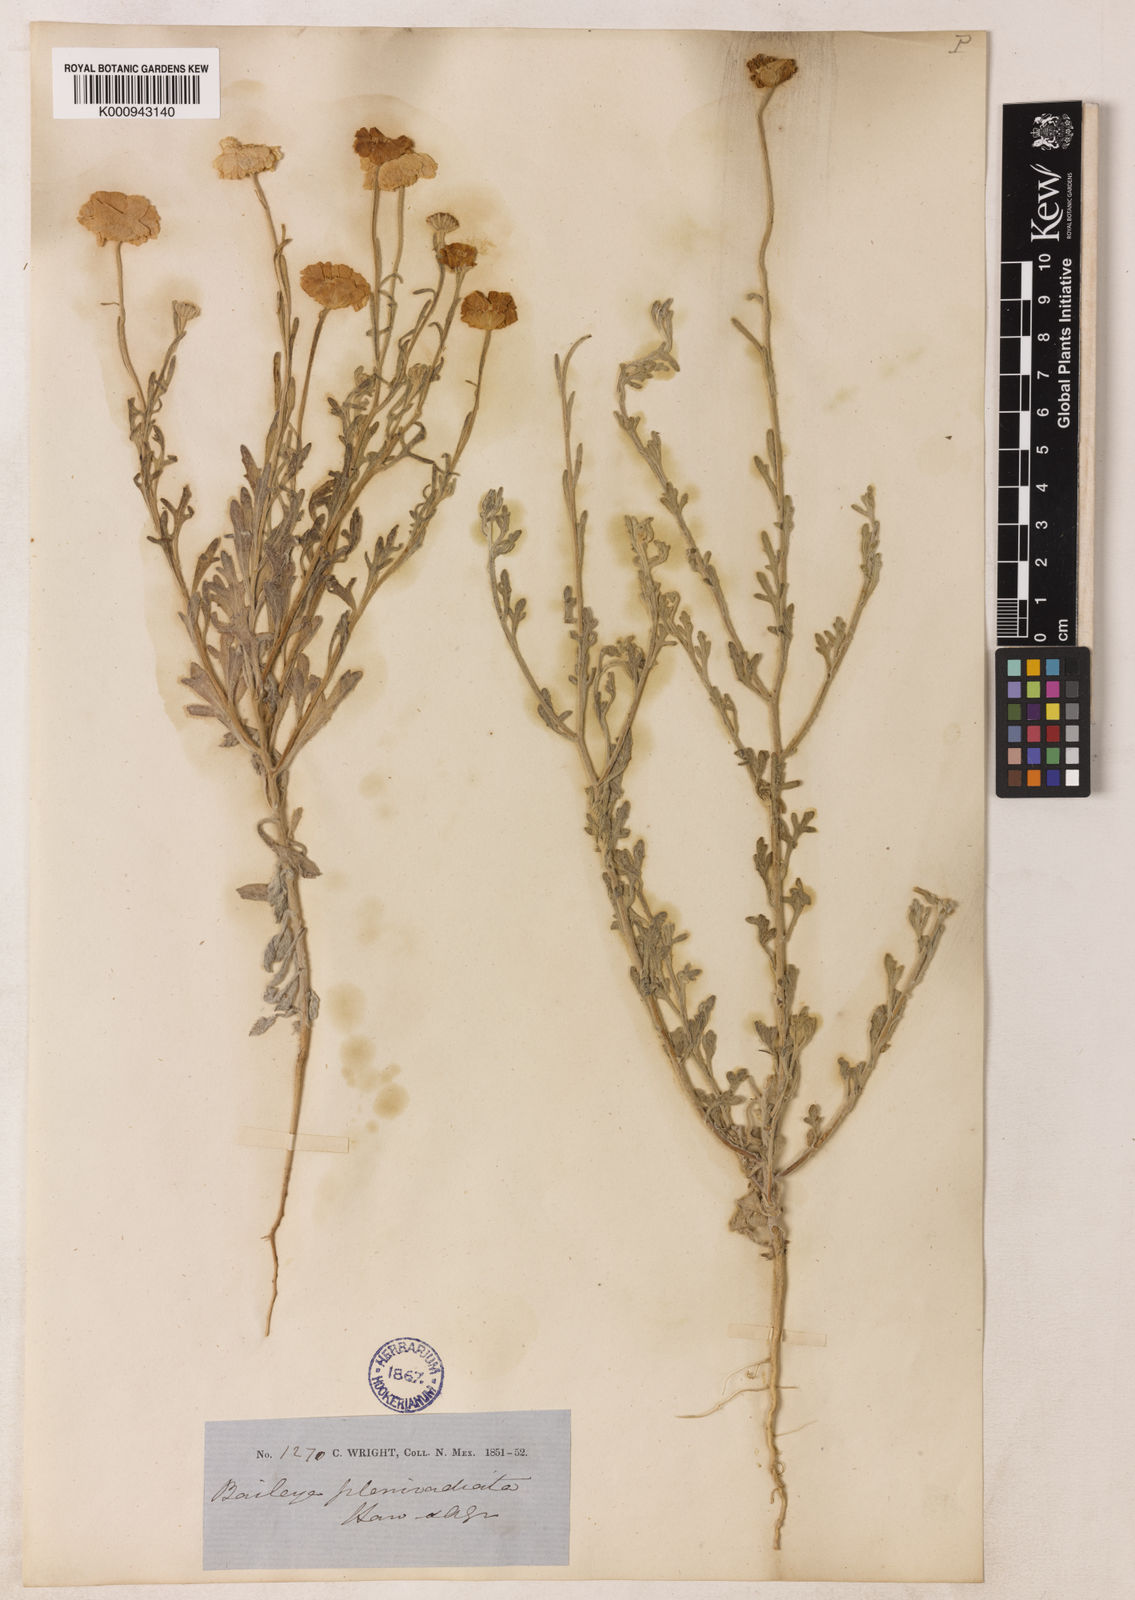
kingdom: Plantae
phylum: Tracheophyta
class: Magnoliopsida
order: Asterales
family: Asteraceae
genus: Baileya
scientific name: Baileya pleniradiata
